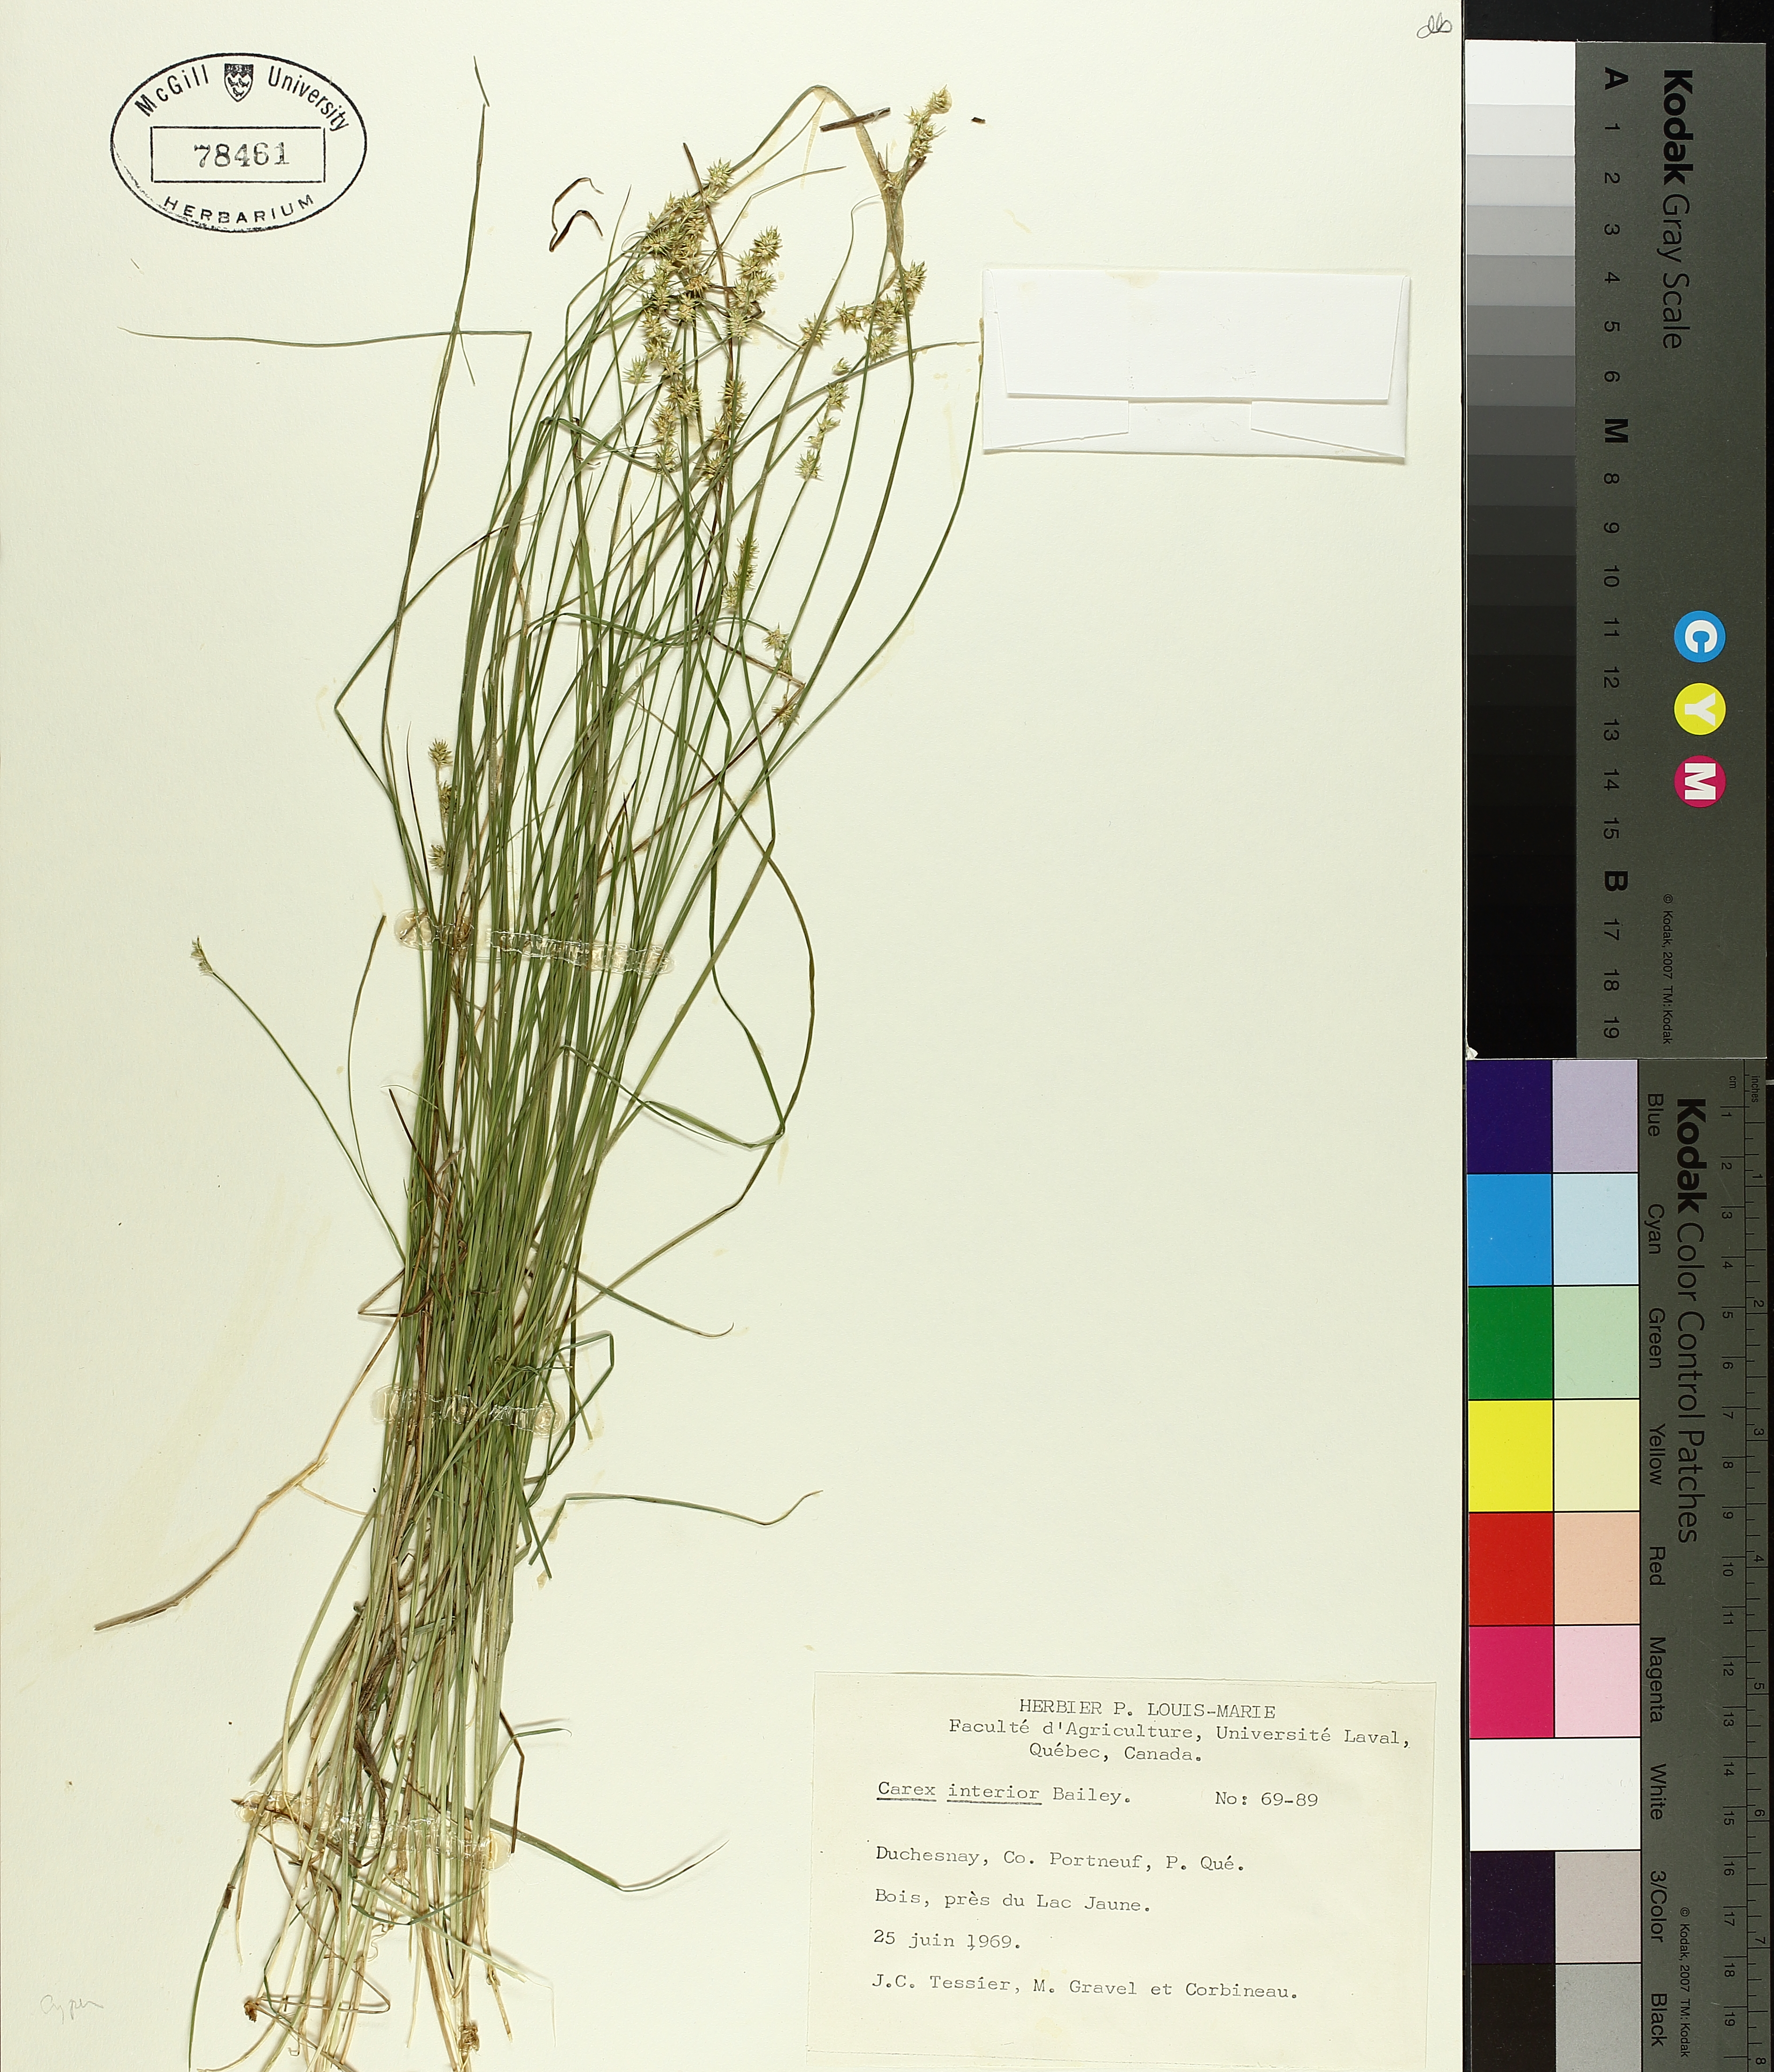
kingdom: Plantae
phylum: Tracheophyta
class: Liliopsida
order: Poales
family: Cyperaceae
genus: Carex
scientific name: Carex interior
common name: Inland sedge
